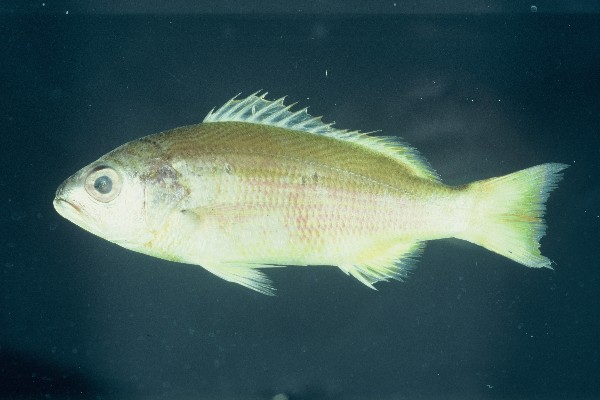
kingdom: Animalia
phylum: Chordata
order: Perciformes
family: Lutjanidae
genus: Lutjanus
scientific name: Lutjanus lutjanus
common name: Bigeye snapper
